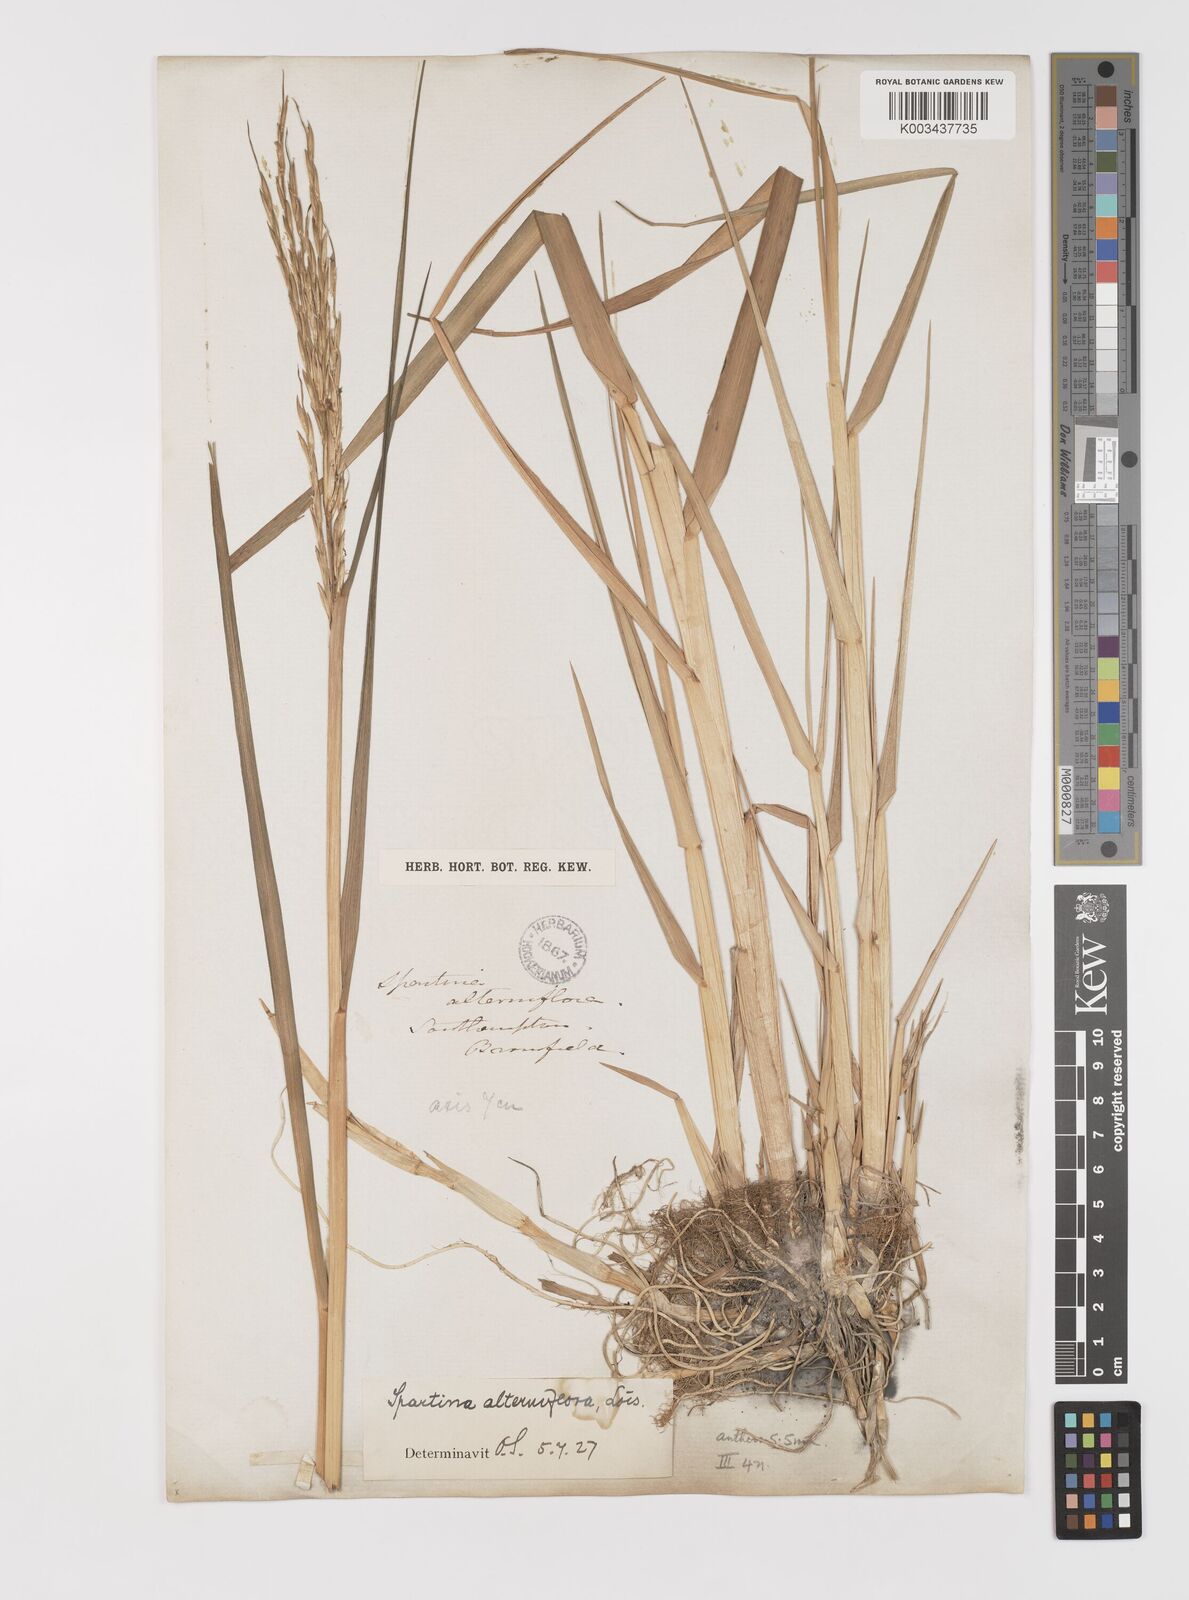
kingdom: Plantae
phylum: Tracheophyta
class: Liliopsida
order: Poales
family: Poaceae
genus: Sporobolus
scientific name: Sporobolus alterniflorus
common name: Atlantic cordgrass
